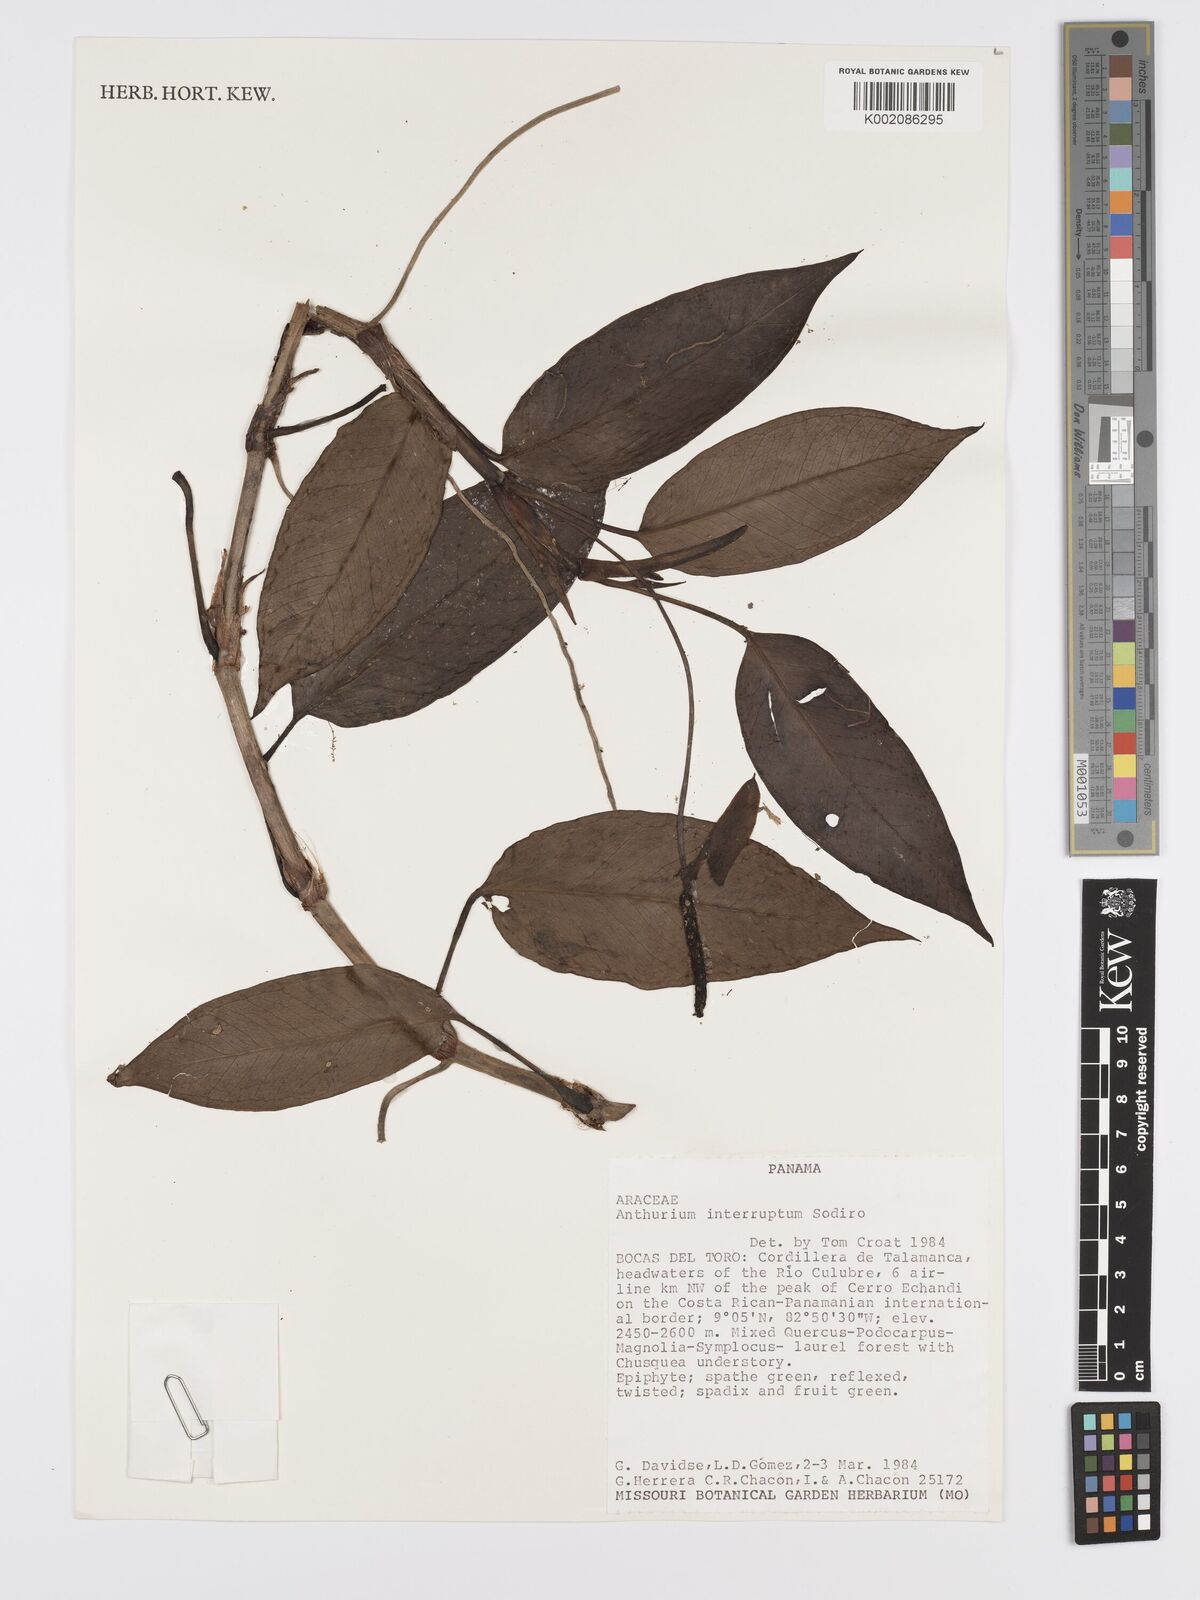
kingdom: Plantae
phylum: Tracheophyta
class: Liliopsida
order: Alismatales
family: Araceae
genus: Anthurium
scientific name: Anthurium interruptum
